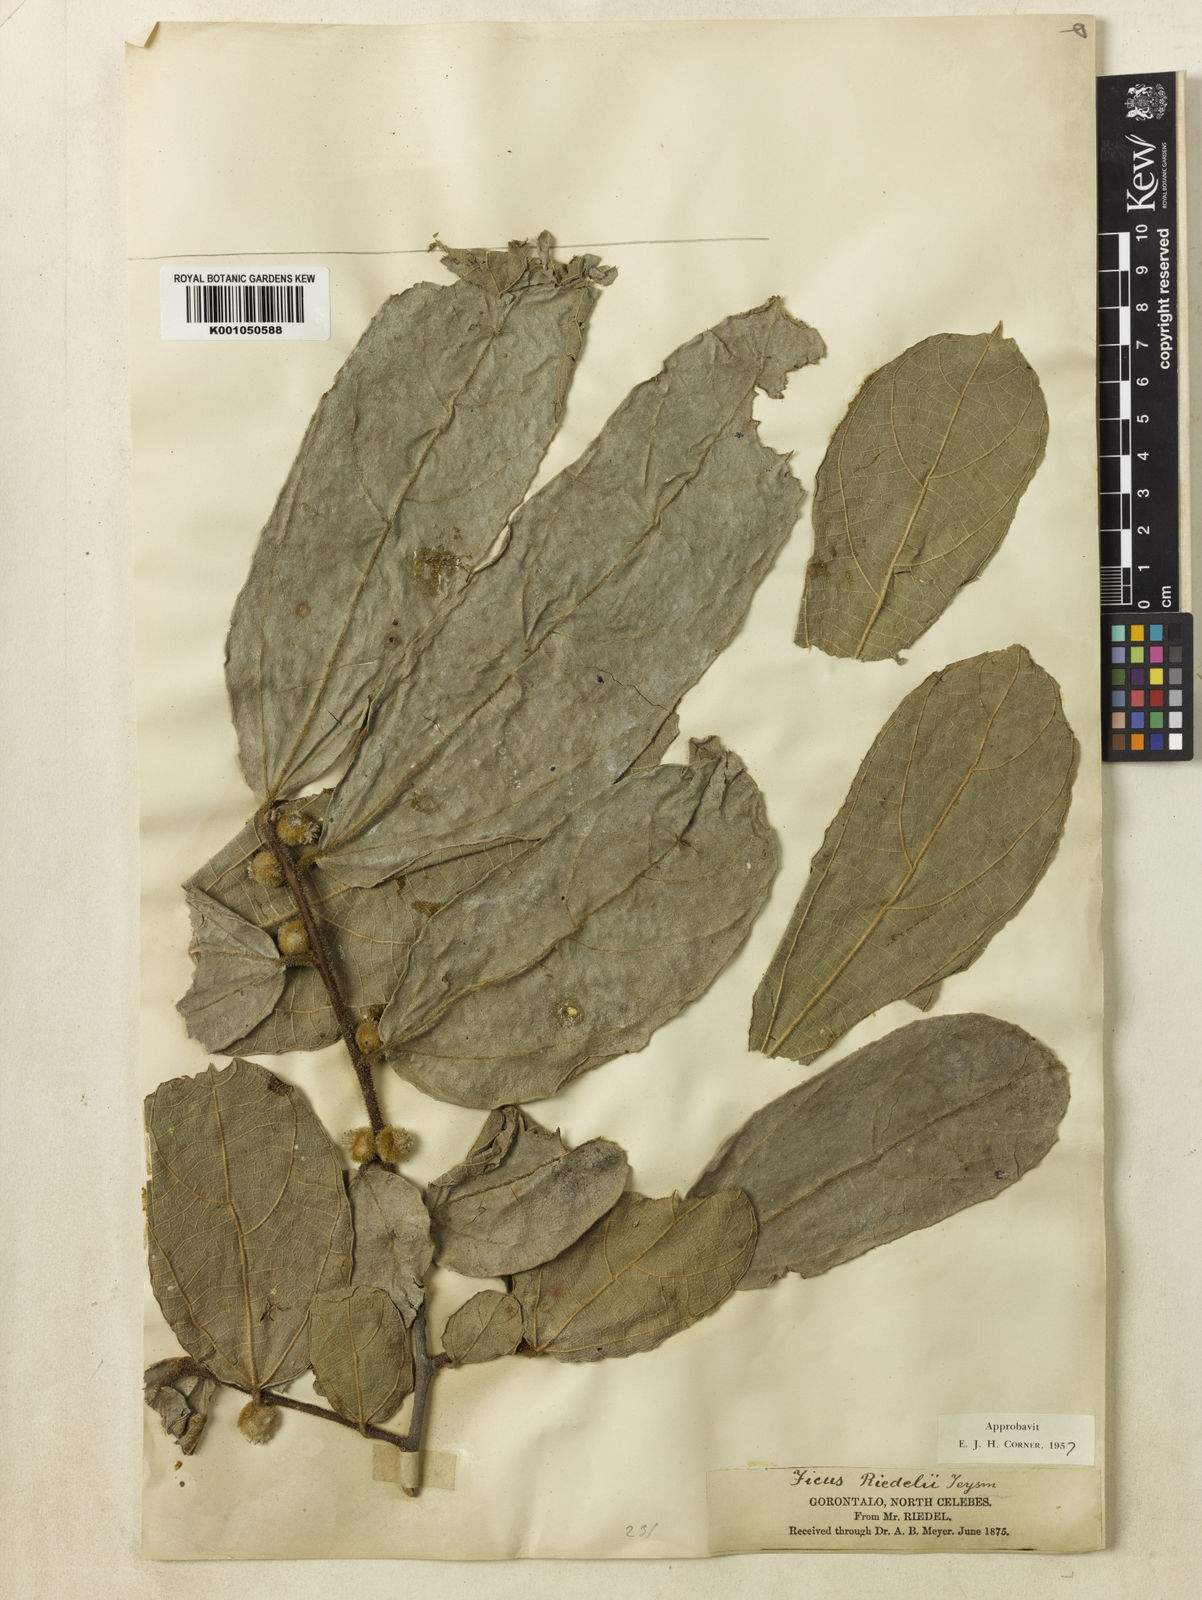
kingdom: Plantae
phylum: Tracheophyta
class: Magnoliopsida
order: Rosales
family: Moraceae
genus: Ficus
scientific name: Ficus riedelii
